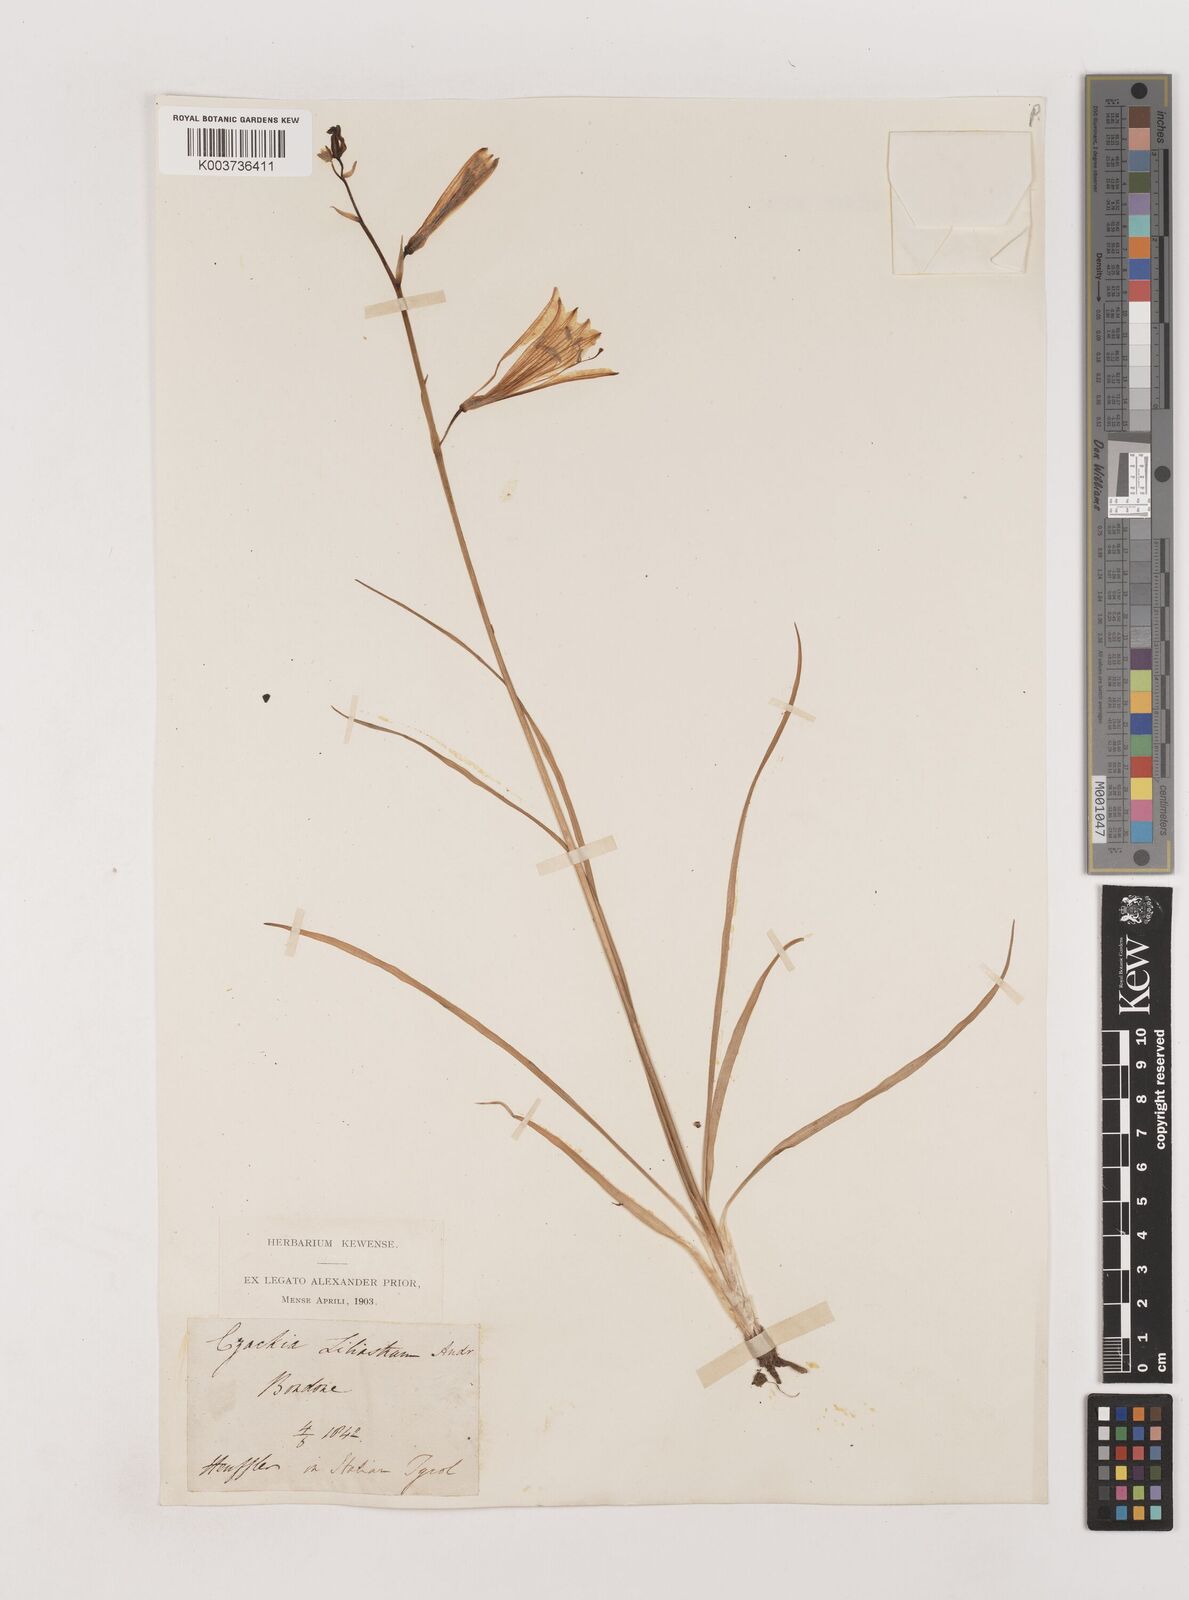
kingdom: Plantae
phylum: Tracheophyta
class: Liliopsida
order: Asparagales
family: Asparagaceae
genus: Paradisea
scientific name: Paradisea liliastrum
